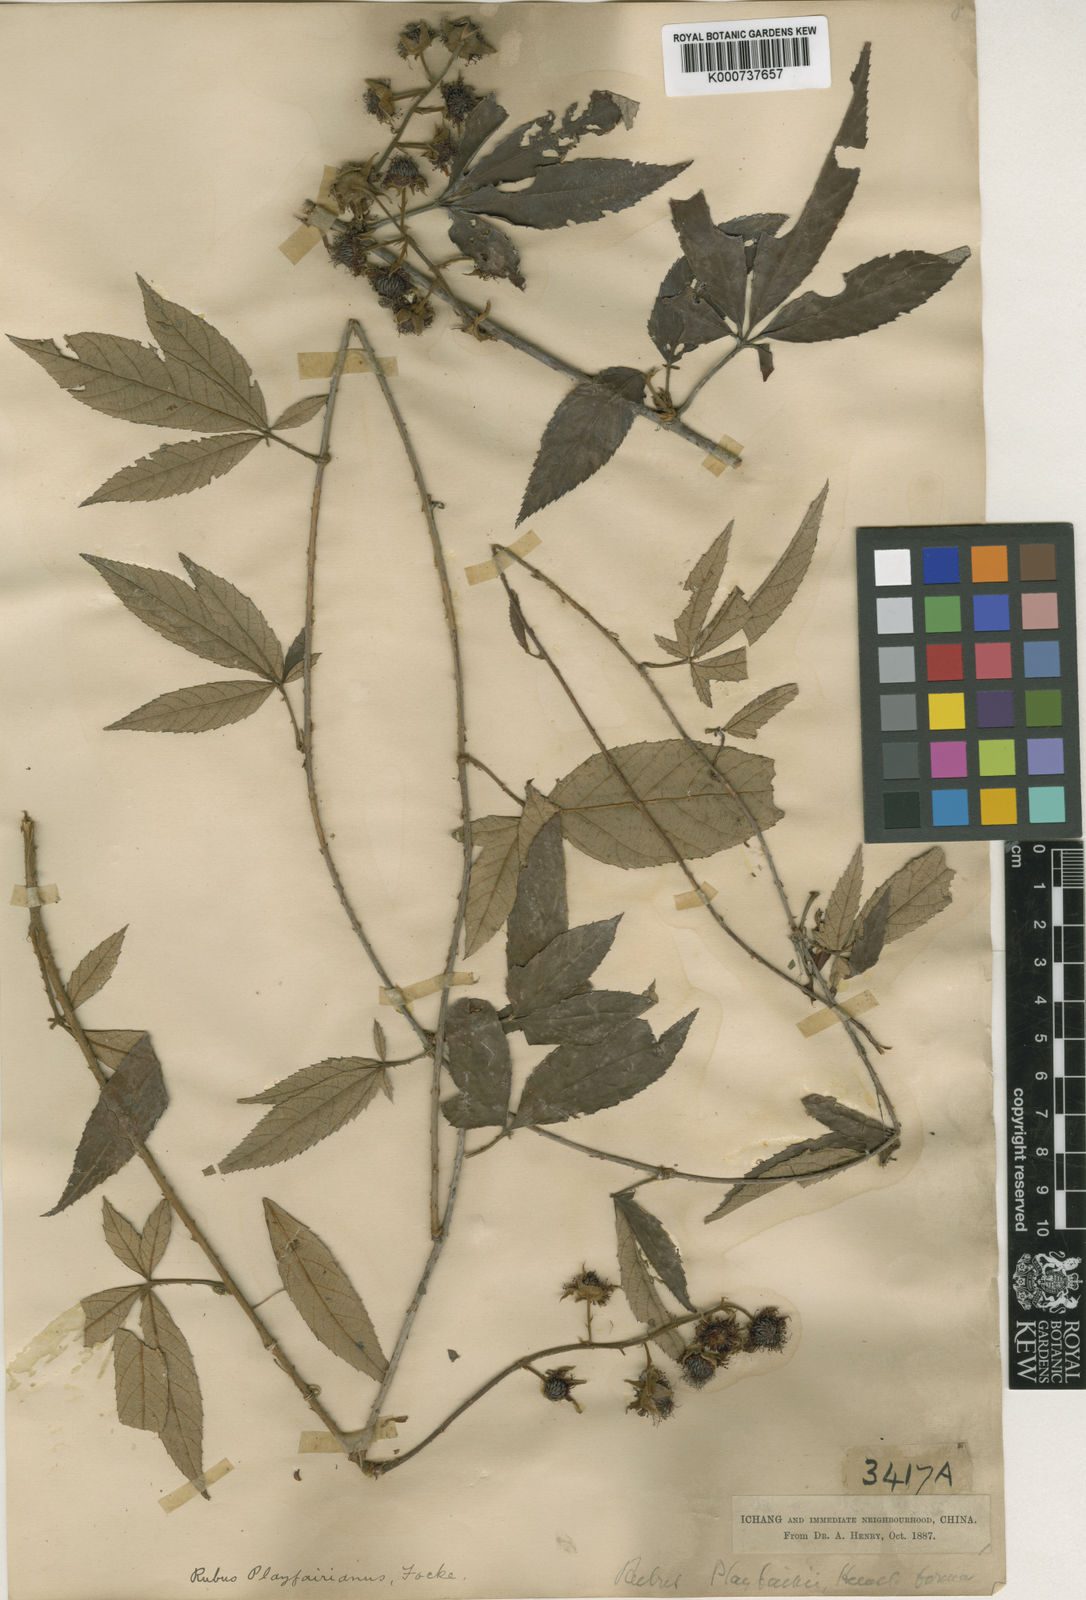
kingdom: Plantae
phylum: Tracheophyta
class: Magnoliopsida
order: Rosales
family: Rosaceae
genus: Rubus
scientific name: Rubus playfairianus
